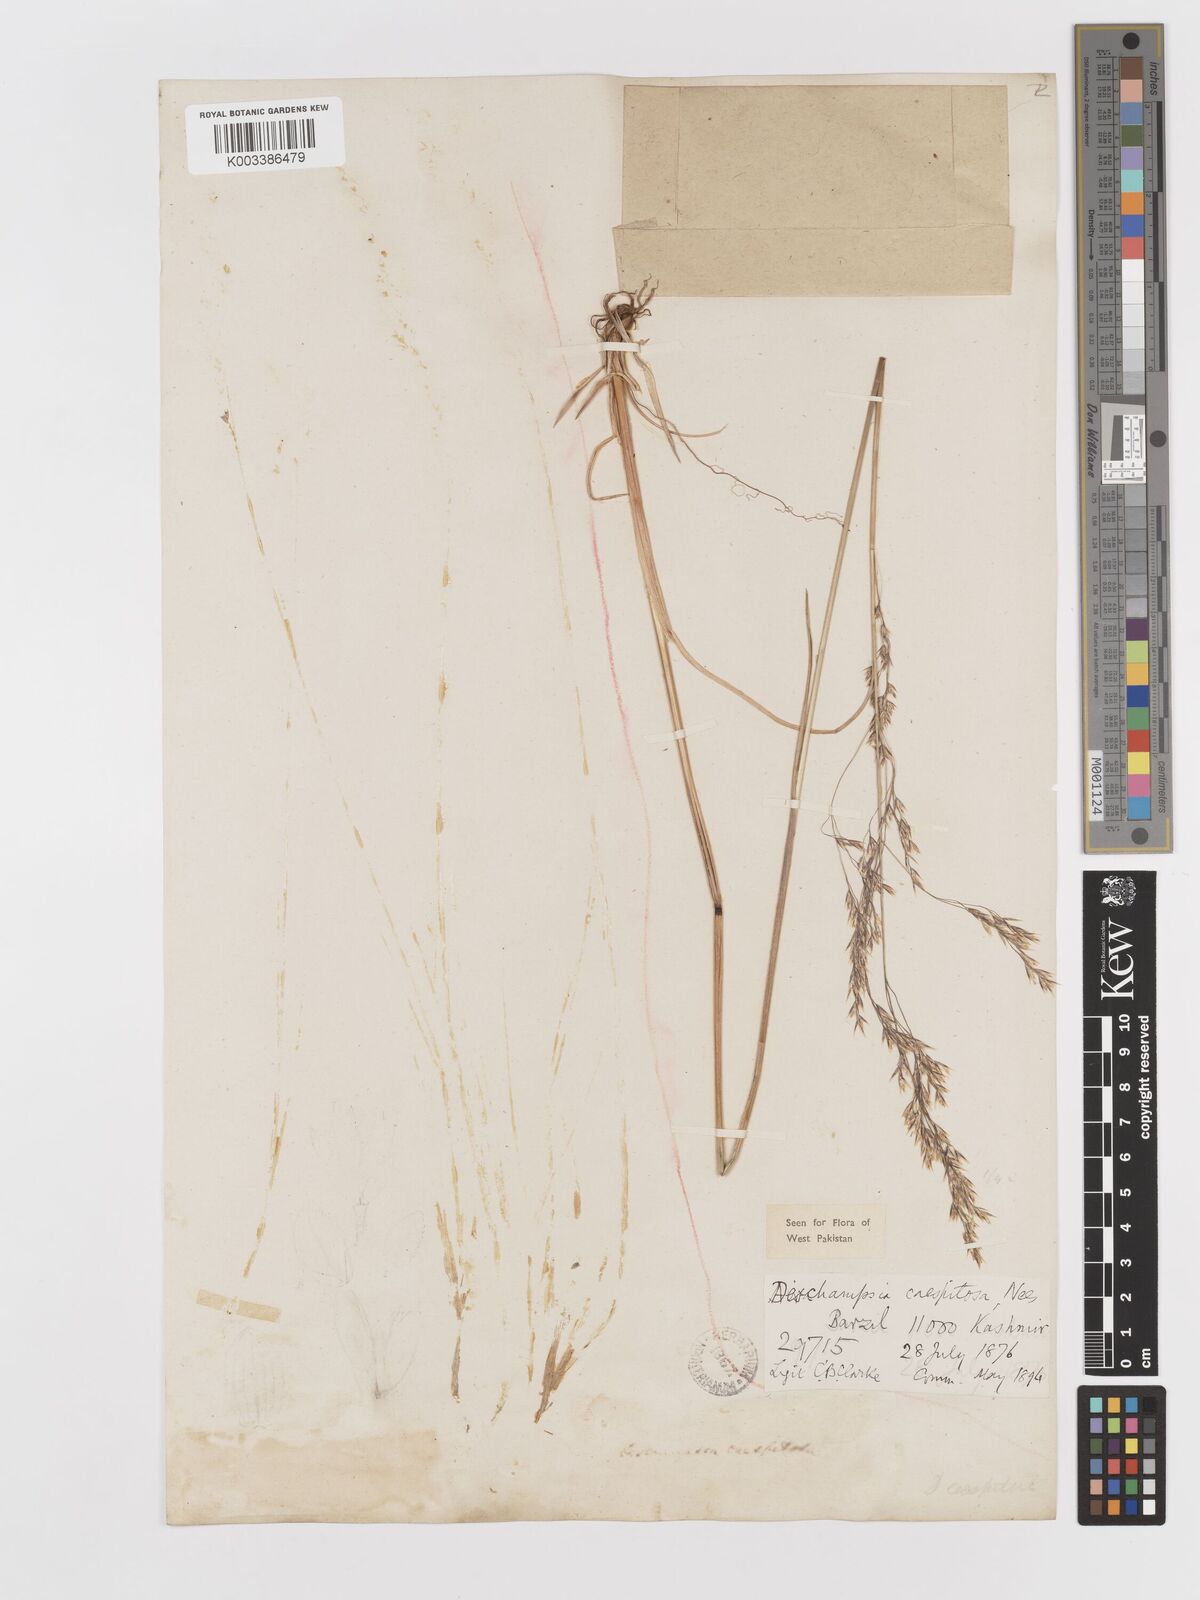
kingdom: Plantae
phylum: Tracheophyta
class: Liliopsida
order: Poales
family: Poaceae
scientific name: Poaceae
